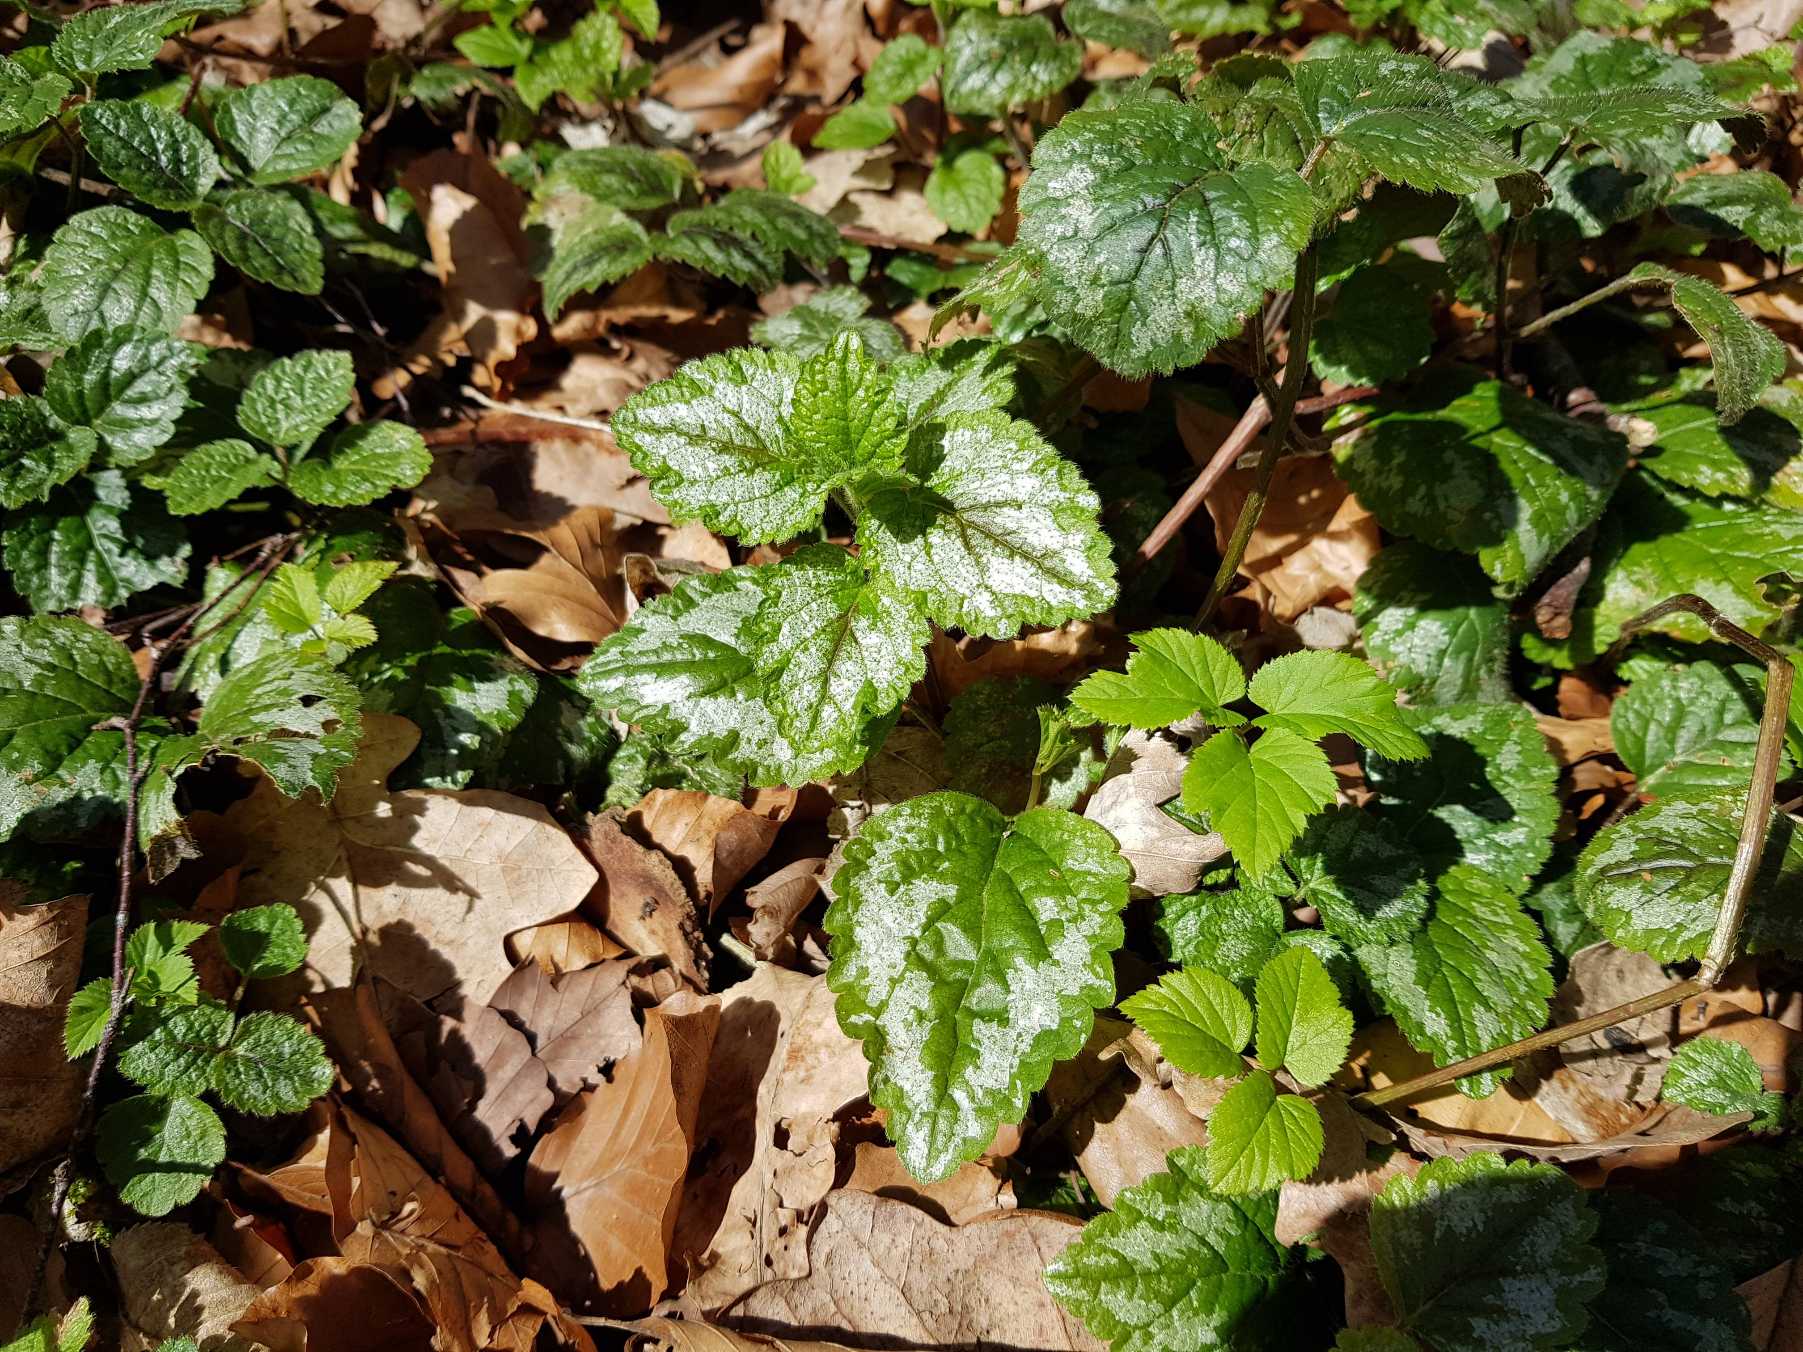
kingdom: Plantae
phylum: Tracheophyta
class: Magnoliopsida
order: Lamiales
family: Lamiaceae
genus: Lamium
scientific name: Lamium galeobdolon
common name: Have-guldnælde
